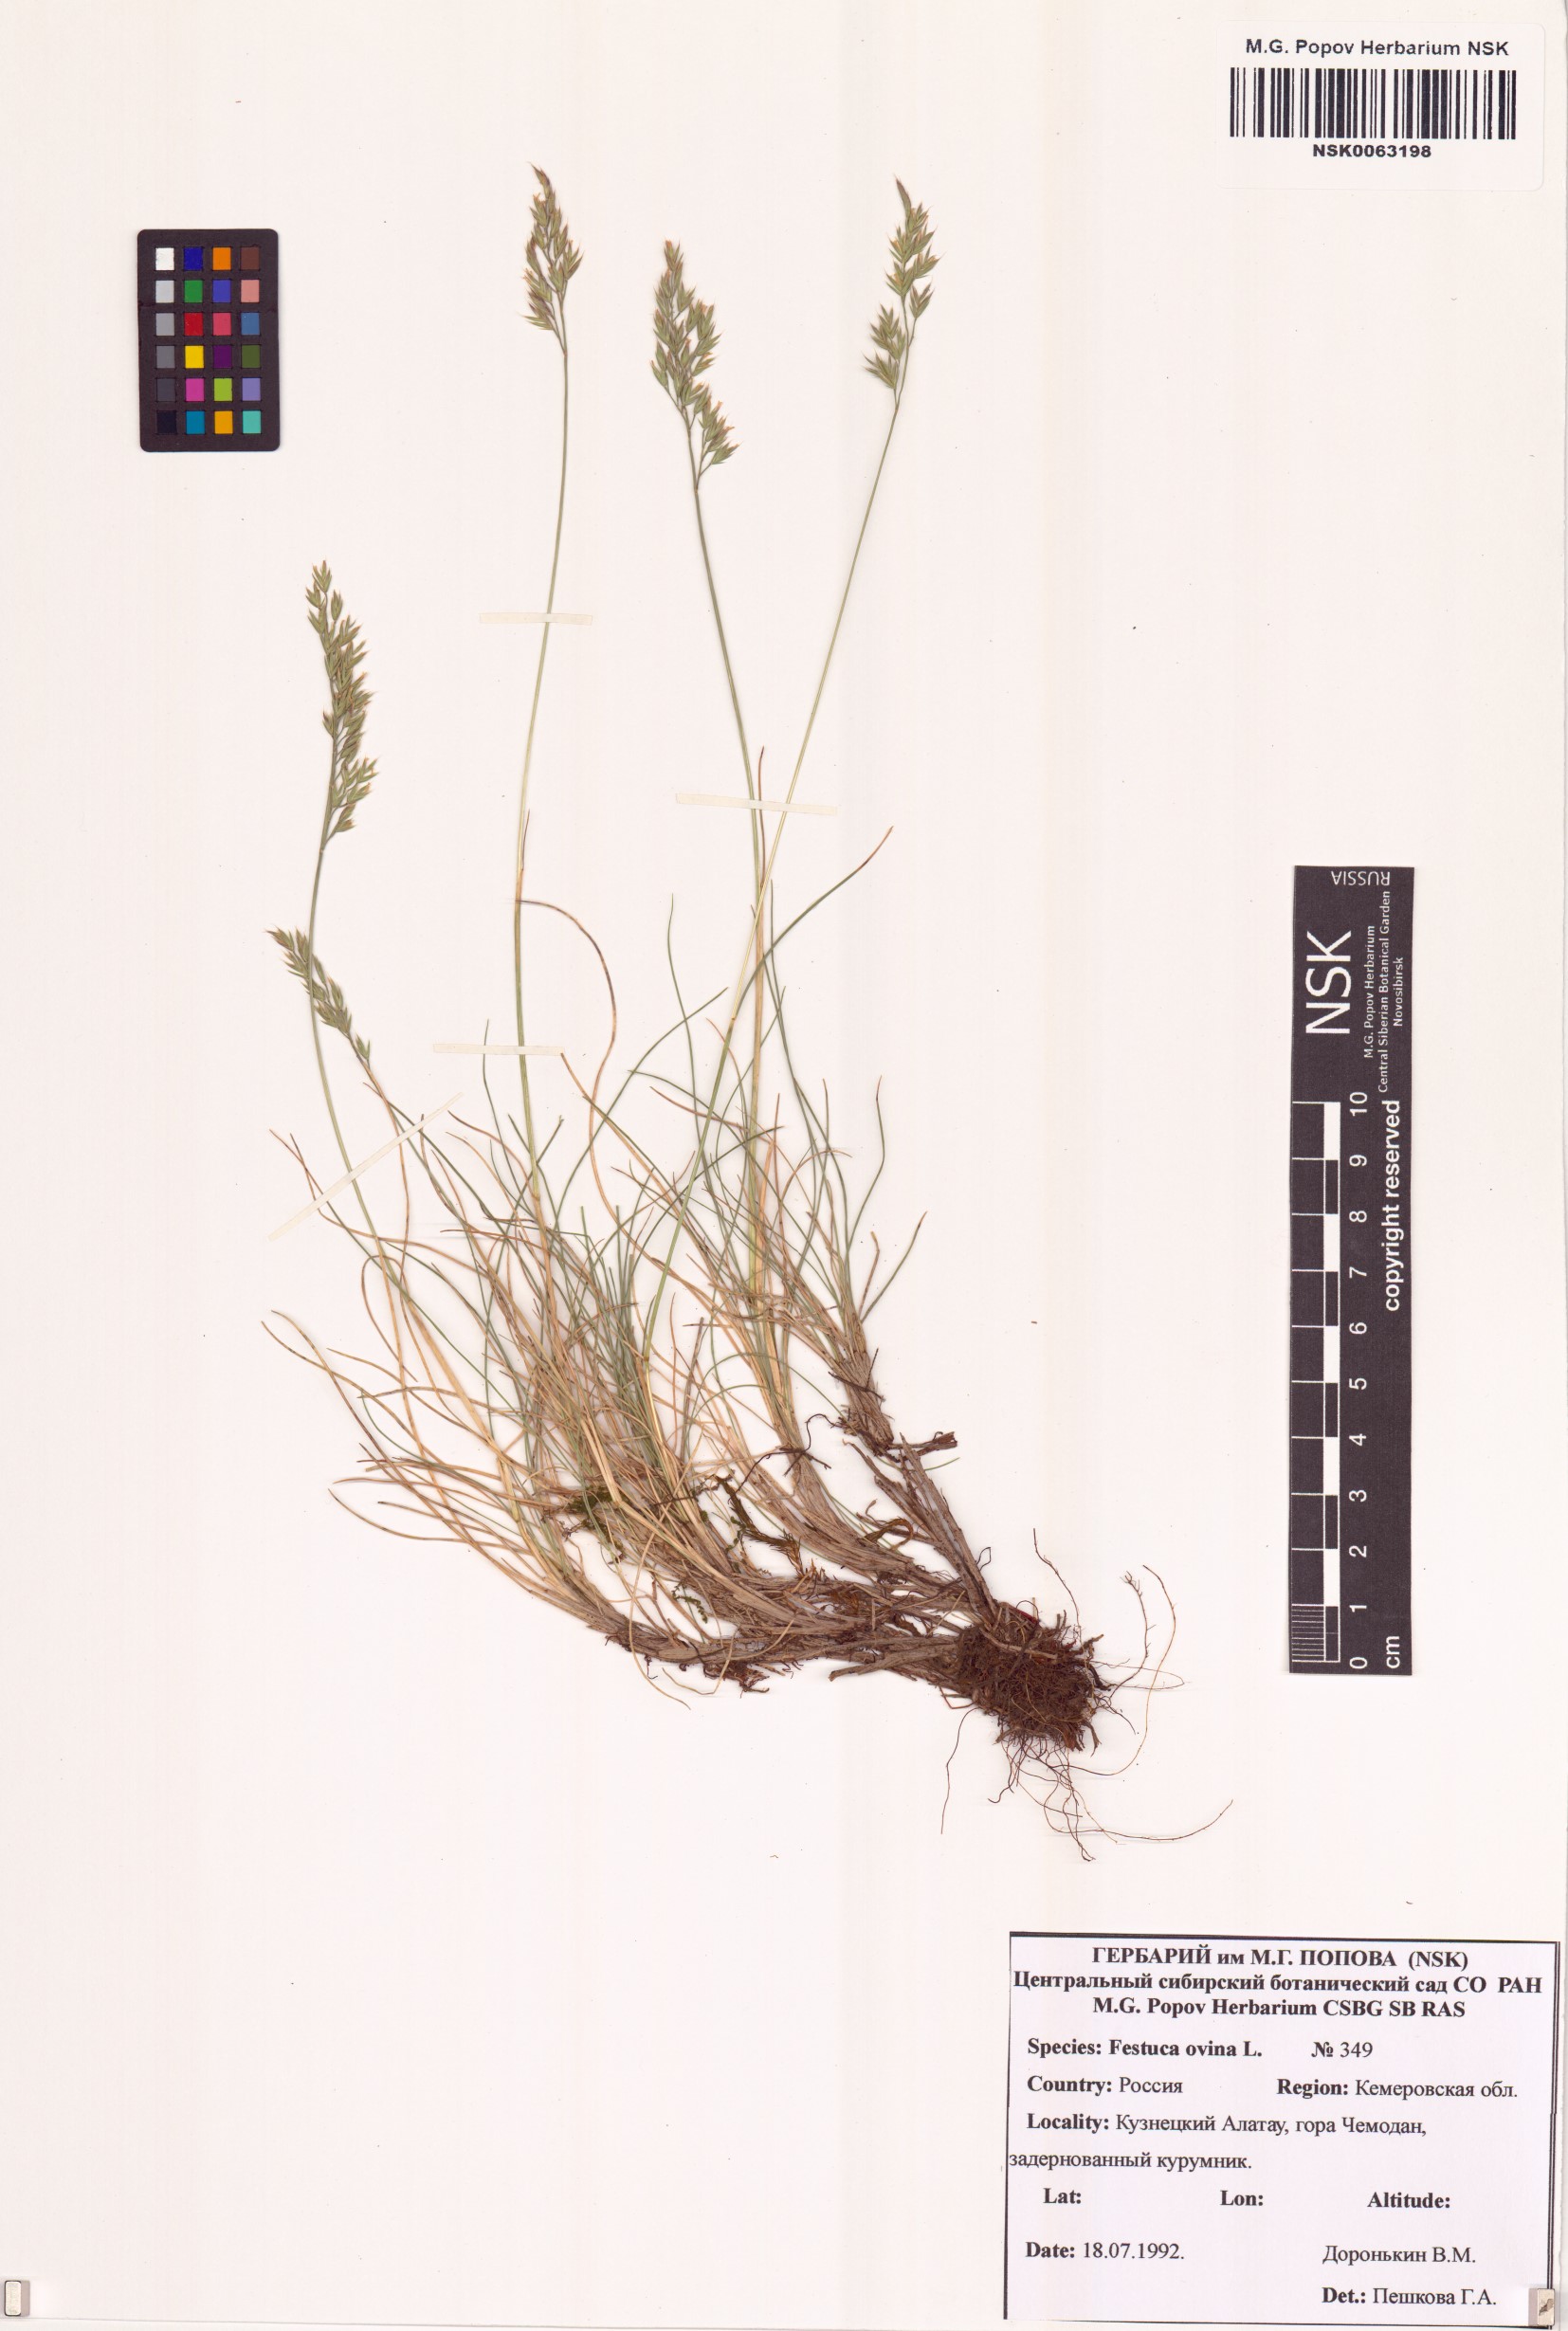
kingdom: Plantae
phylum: Tracheophyta
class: Liliopsida
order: Poales
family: Poaceae
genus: Festuca
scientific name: Festuca ovina
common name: Sheep fescue
